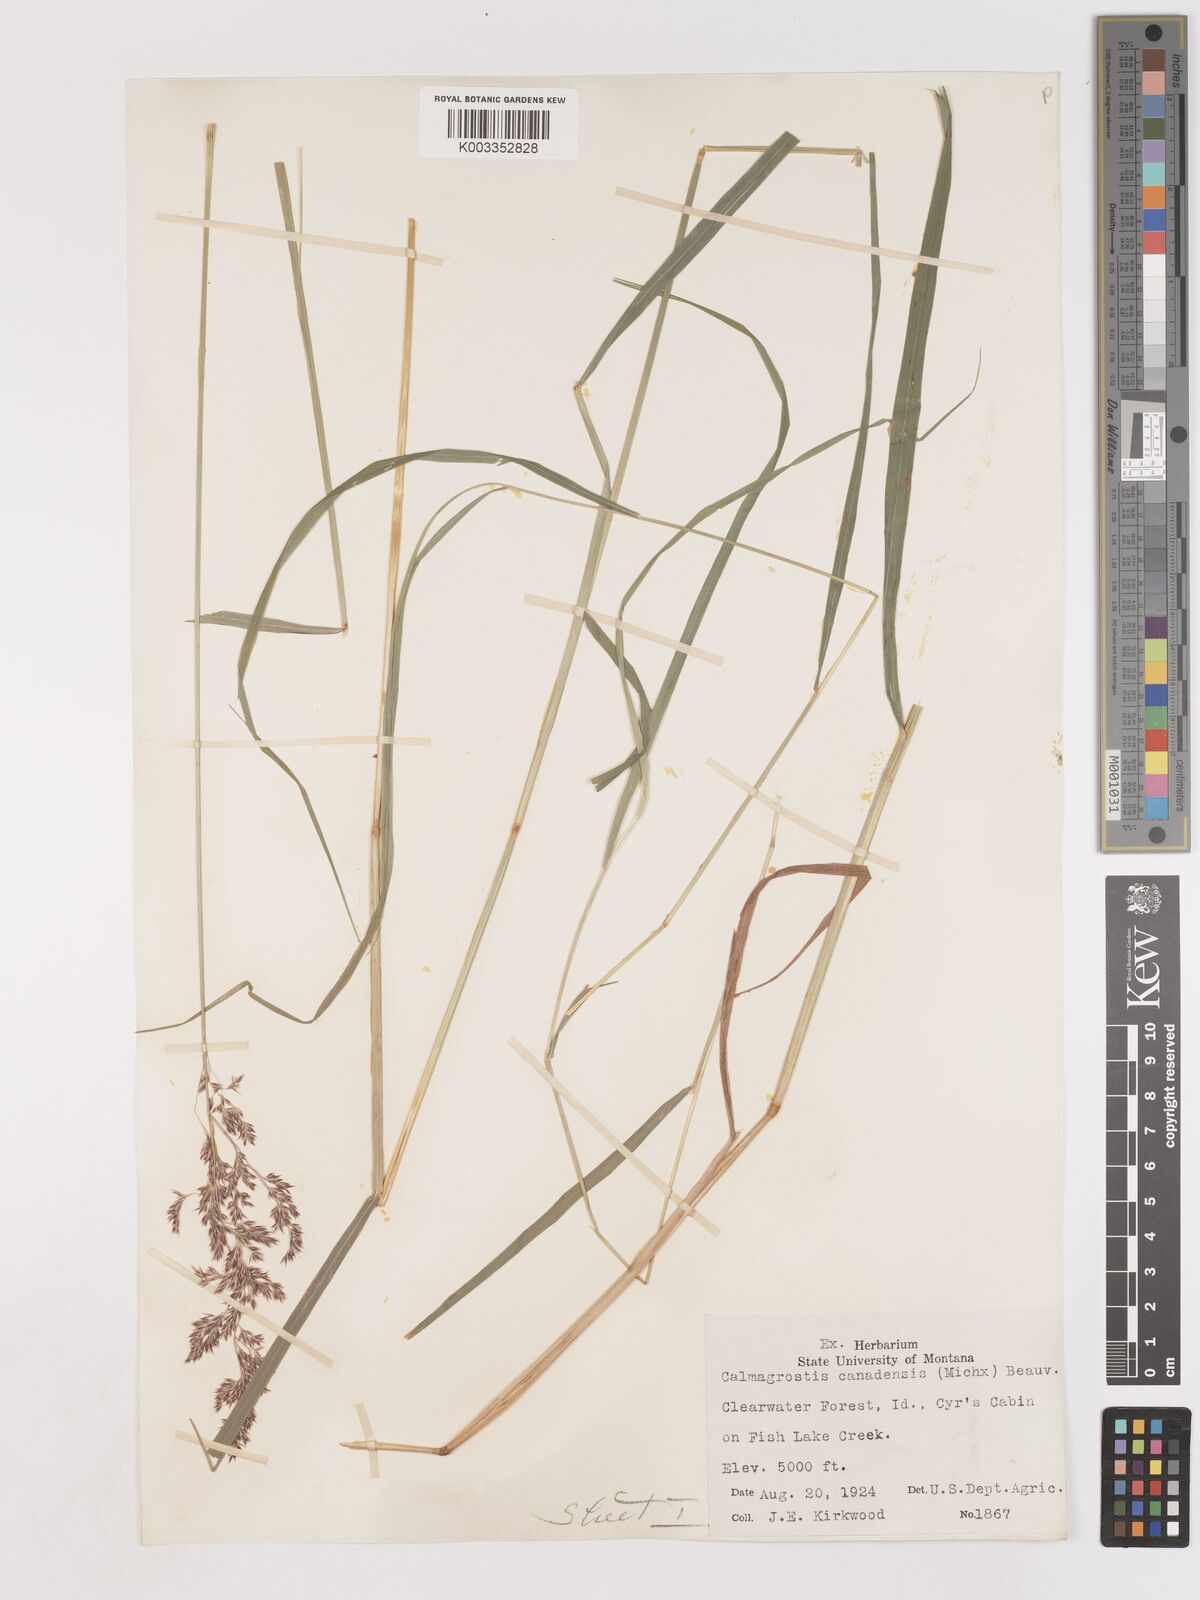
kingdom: Plantae
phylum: Tracheophyta
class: Liliopsida
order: Poales
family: Poaceae
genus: Calamagrostis
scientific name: Calamagrostis canadensis
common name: Canada bluejoint
